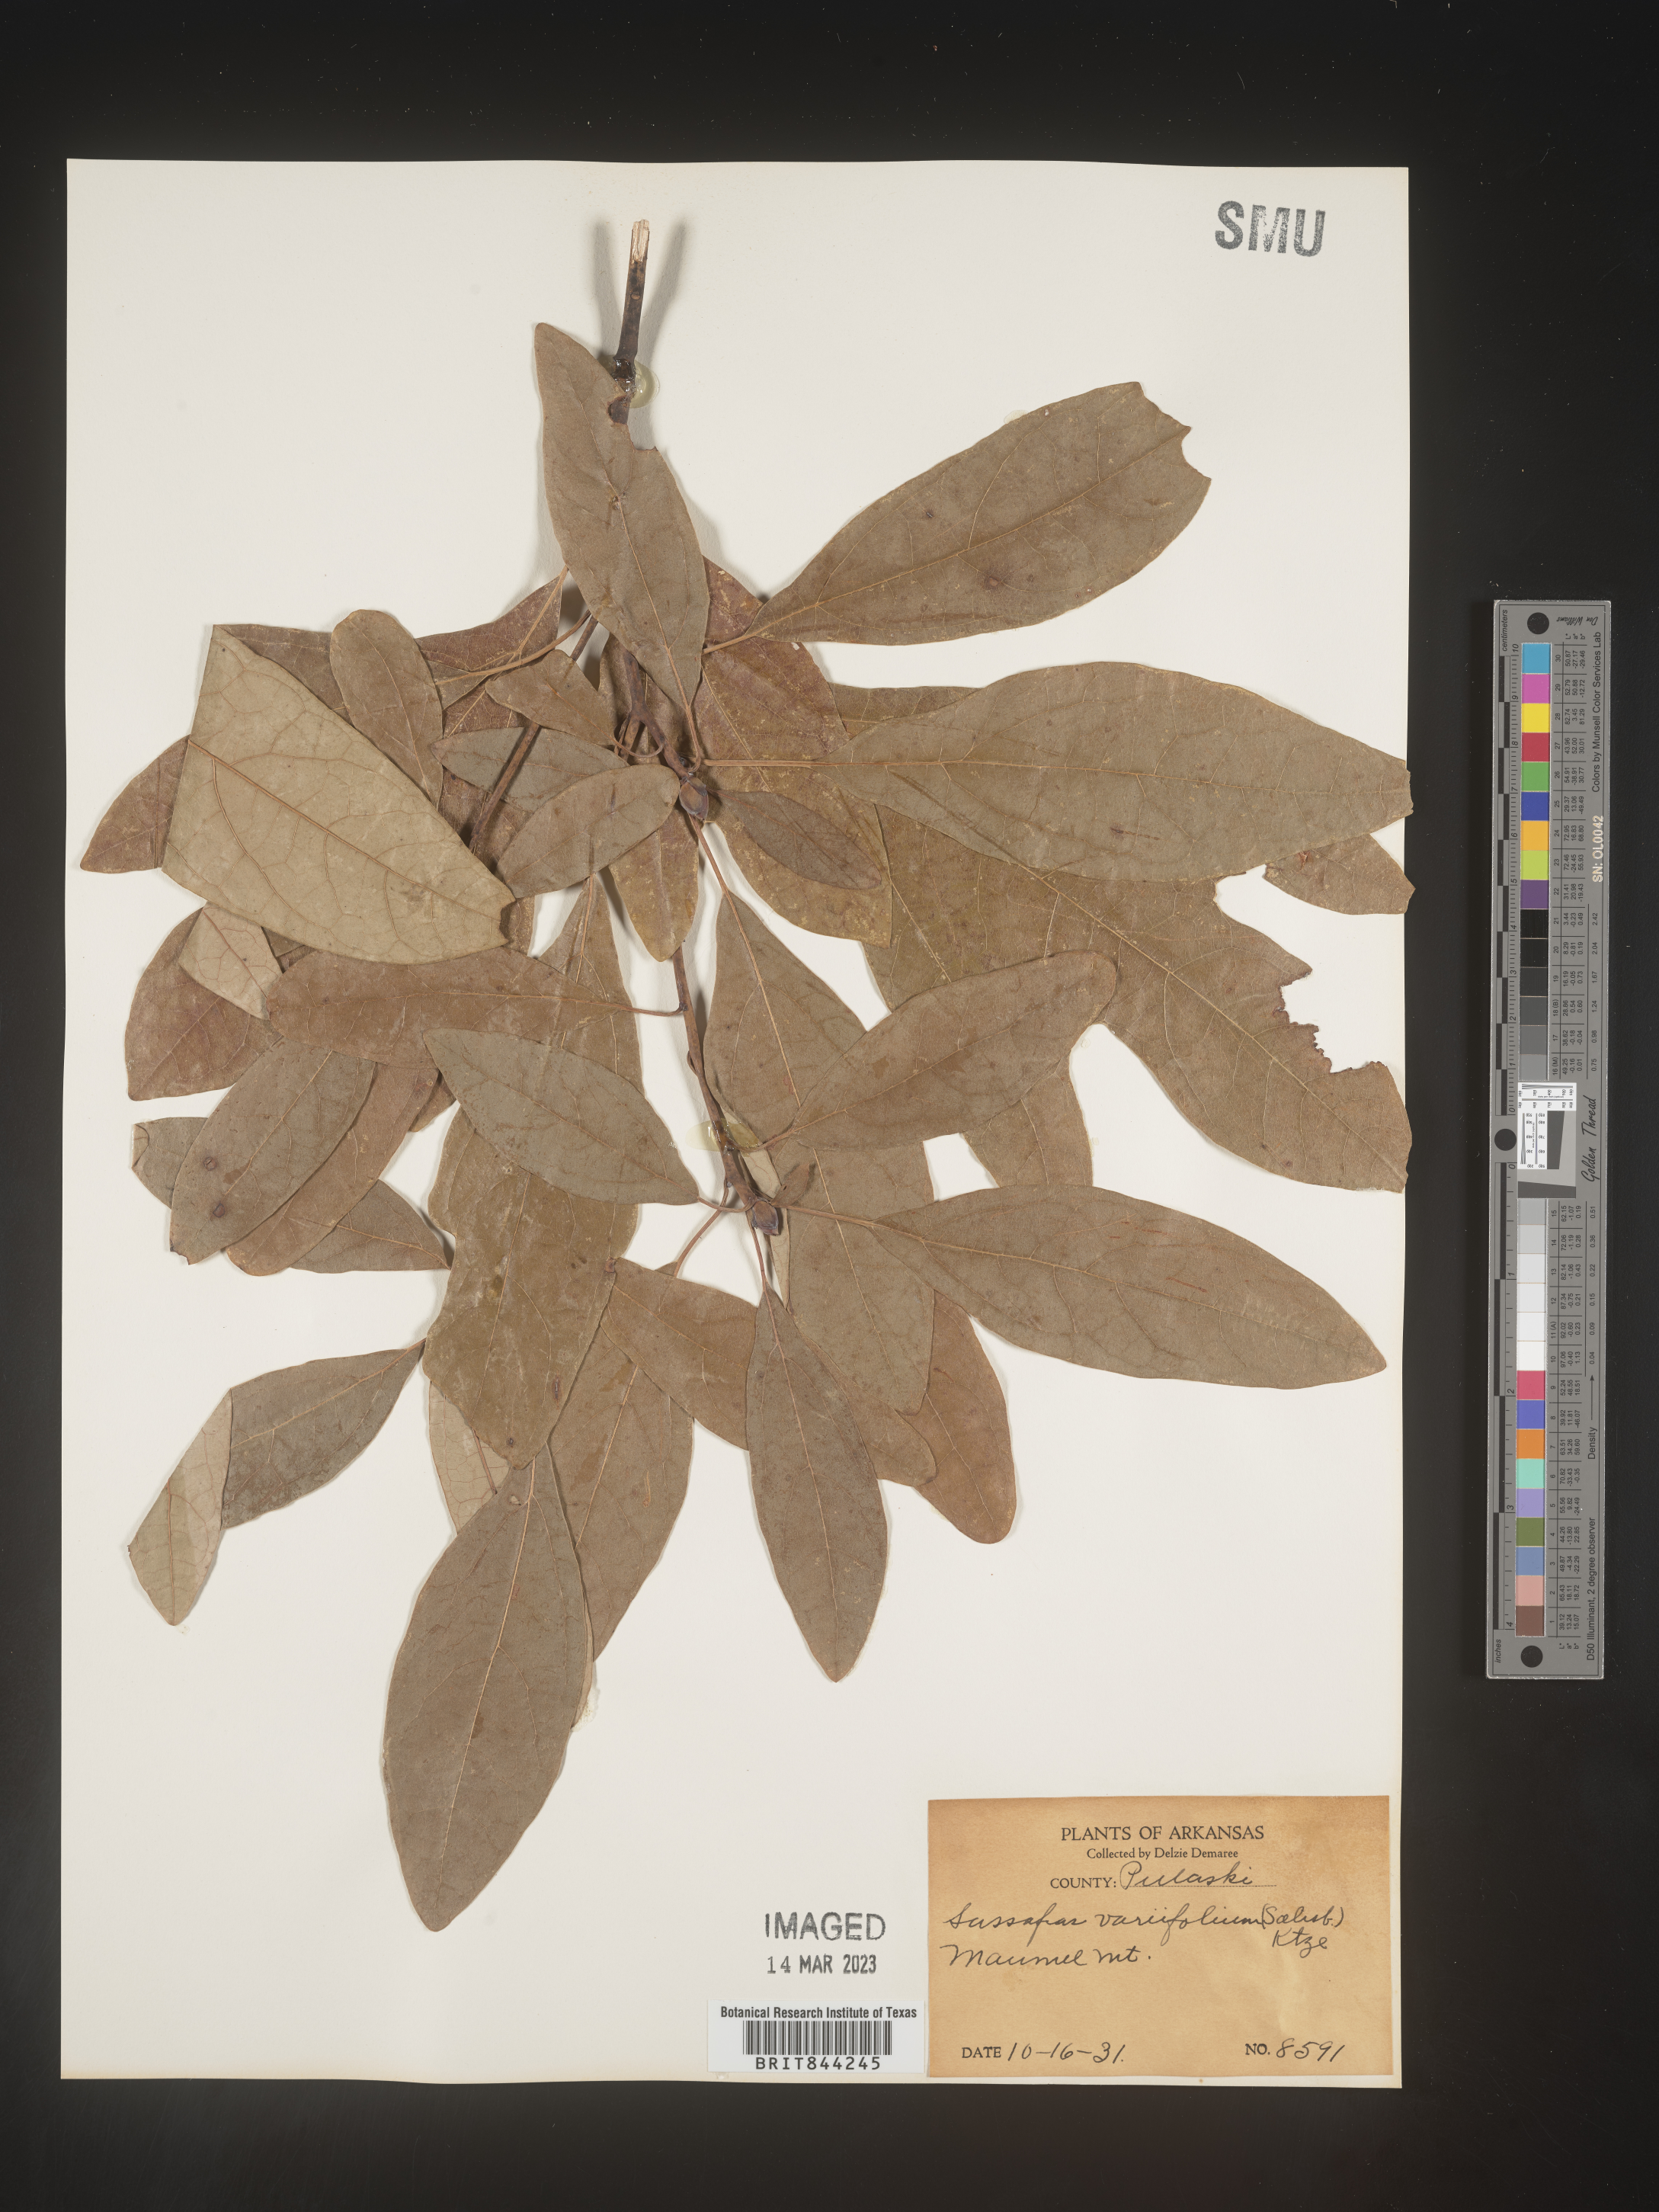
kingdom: Plantae
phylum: Tracheophyta
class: Magnoliopsida
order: Laurales
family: Lauraceae
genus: Sassafras
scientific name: Sassafras albidum
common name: Sassafras
